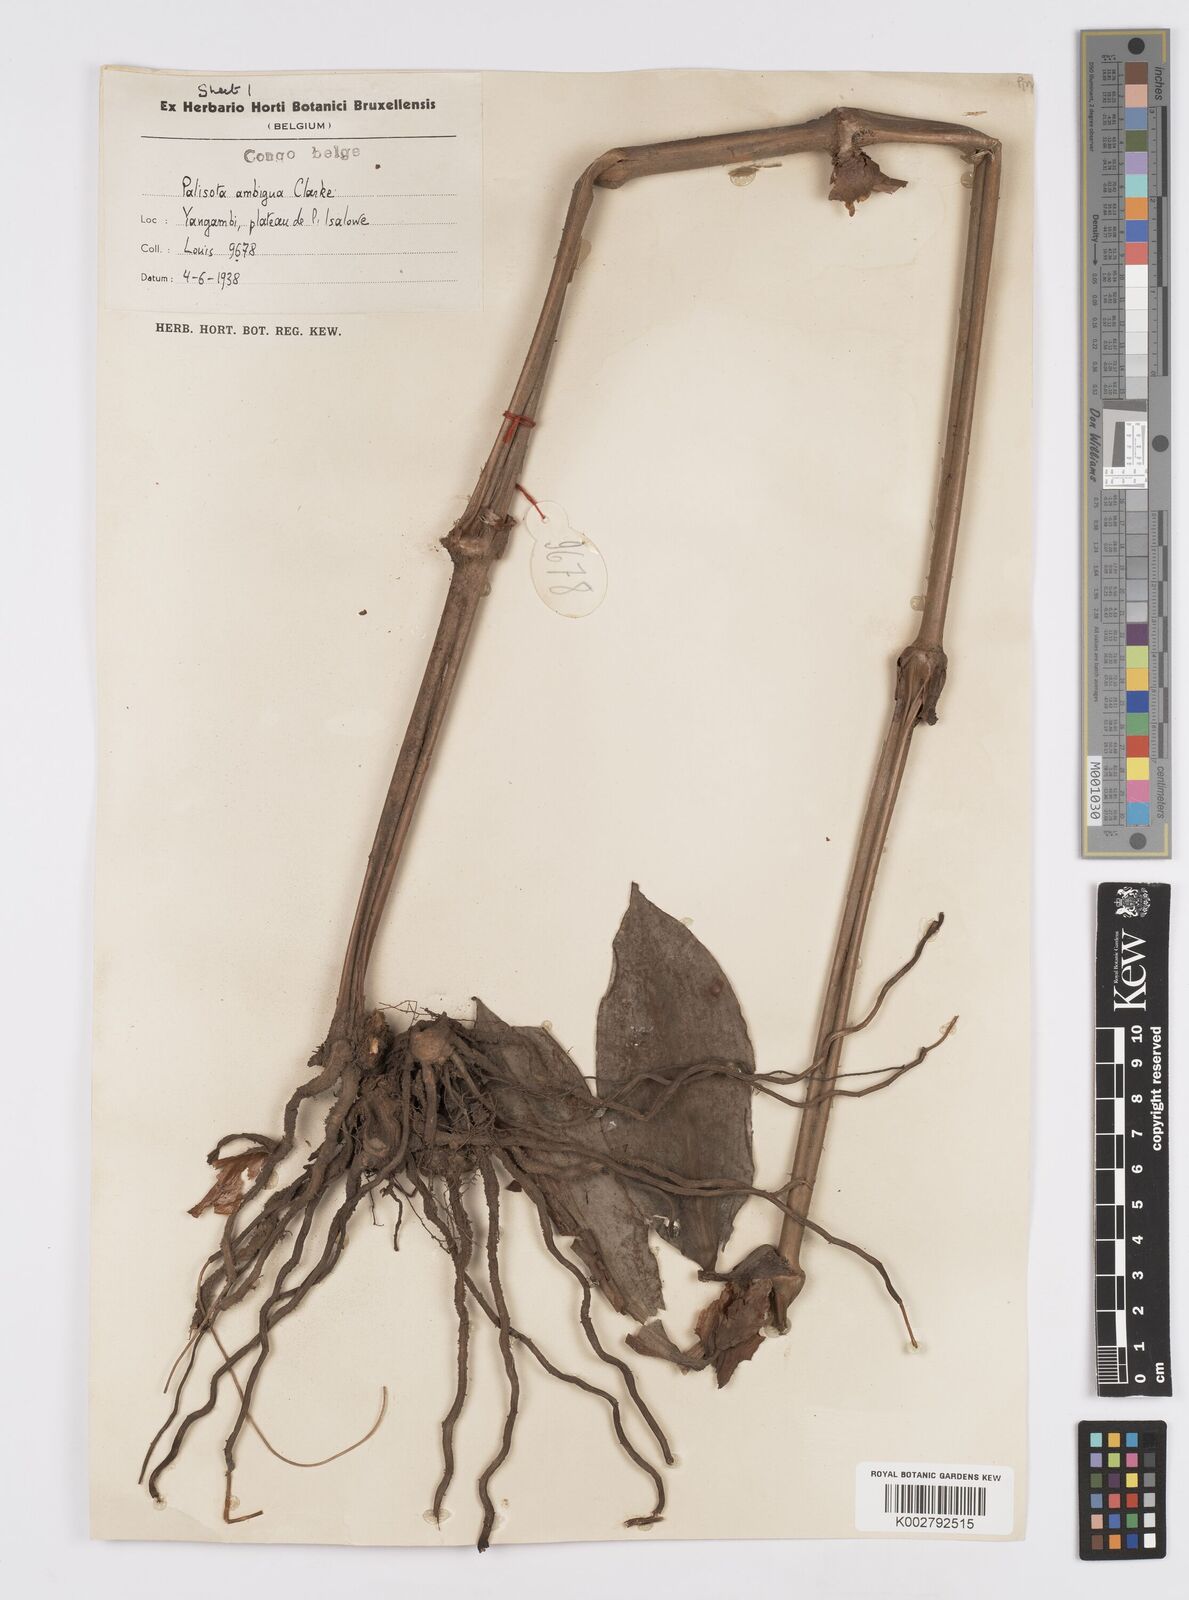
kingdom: Plantae
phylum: Tracheophyta
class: Liliopsida
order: Commelinales
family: Commelinaceae
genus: Palisota
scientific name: Palisota ambigua
